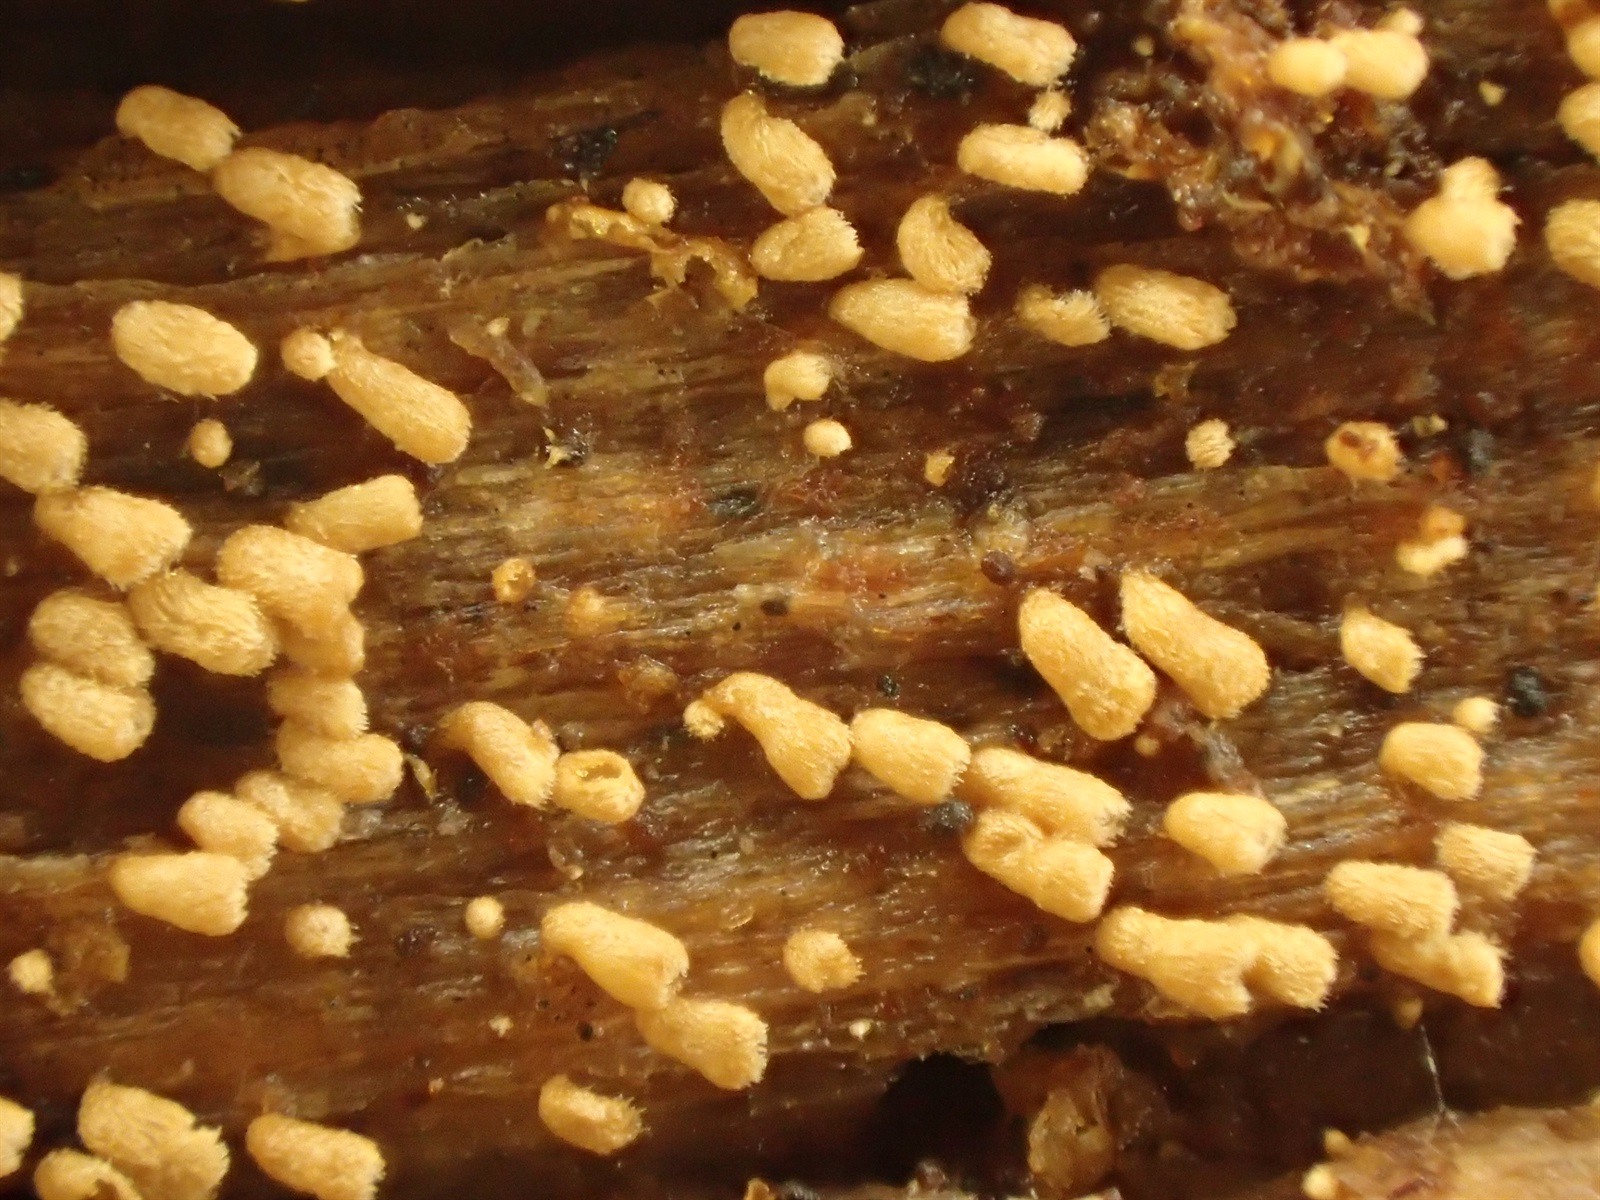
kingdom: Fungi
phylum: Basidiomycota
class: Agaricomycetes
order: Agaricales
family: Niaceae
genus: Maireina
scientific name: Maireina ochracea
